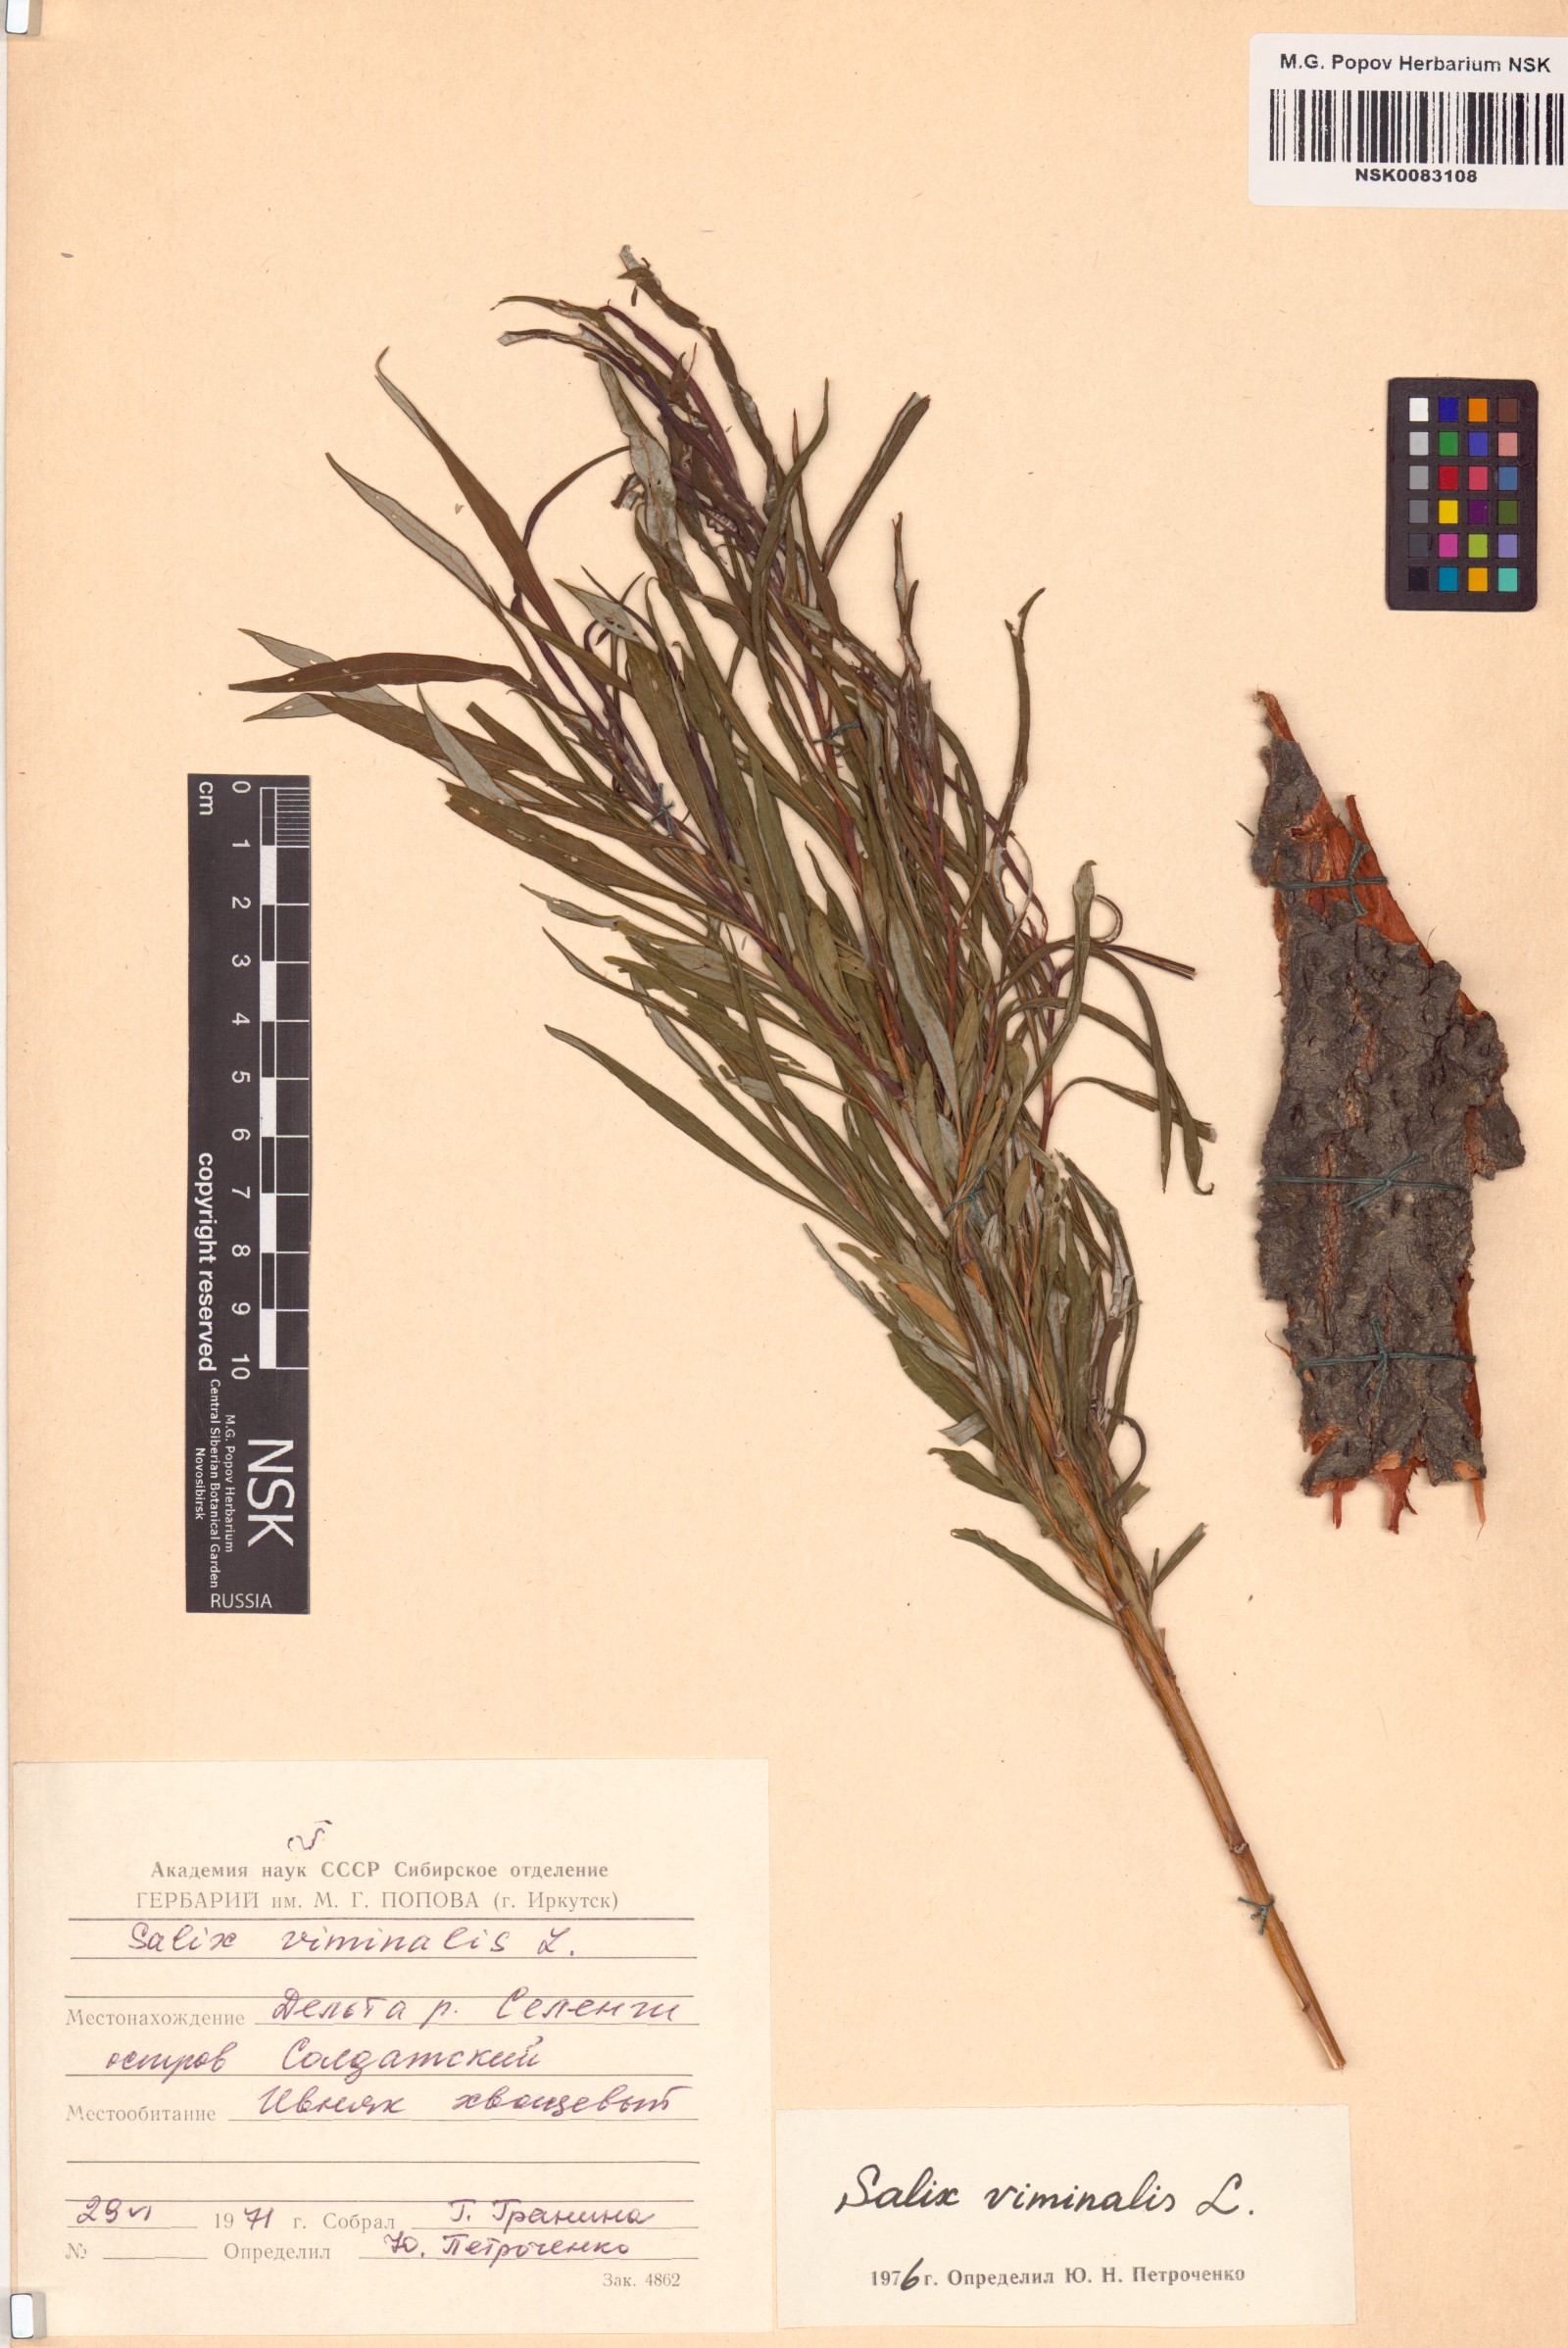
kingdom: Plantae
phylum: Tracheophyta
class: Magnoliopsida
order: Malpighiales
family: Salicaceae
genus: Salix
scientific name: Salix viminalis
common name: Osier
